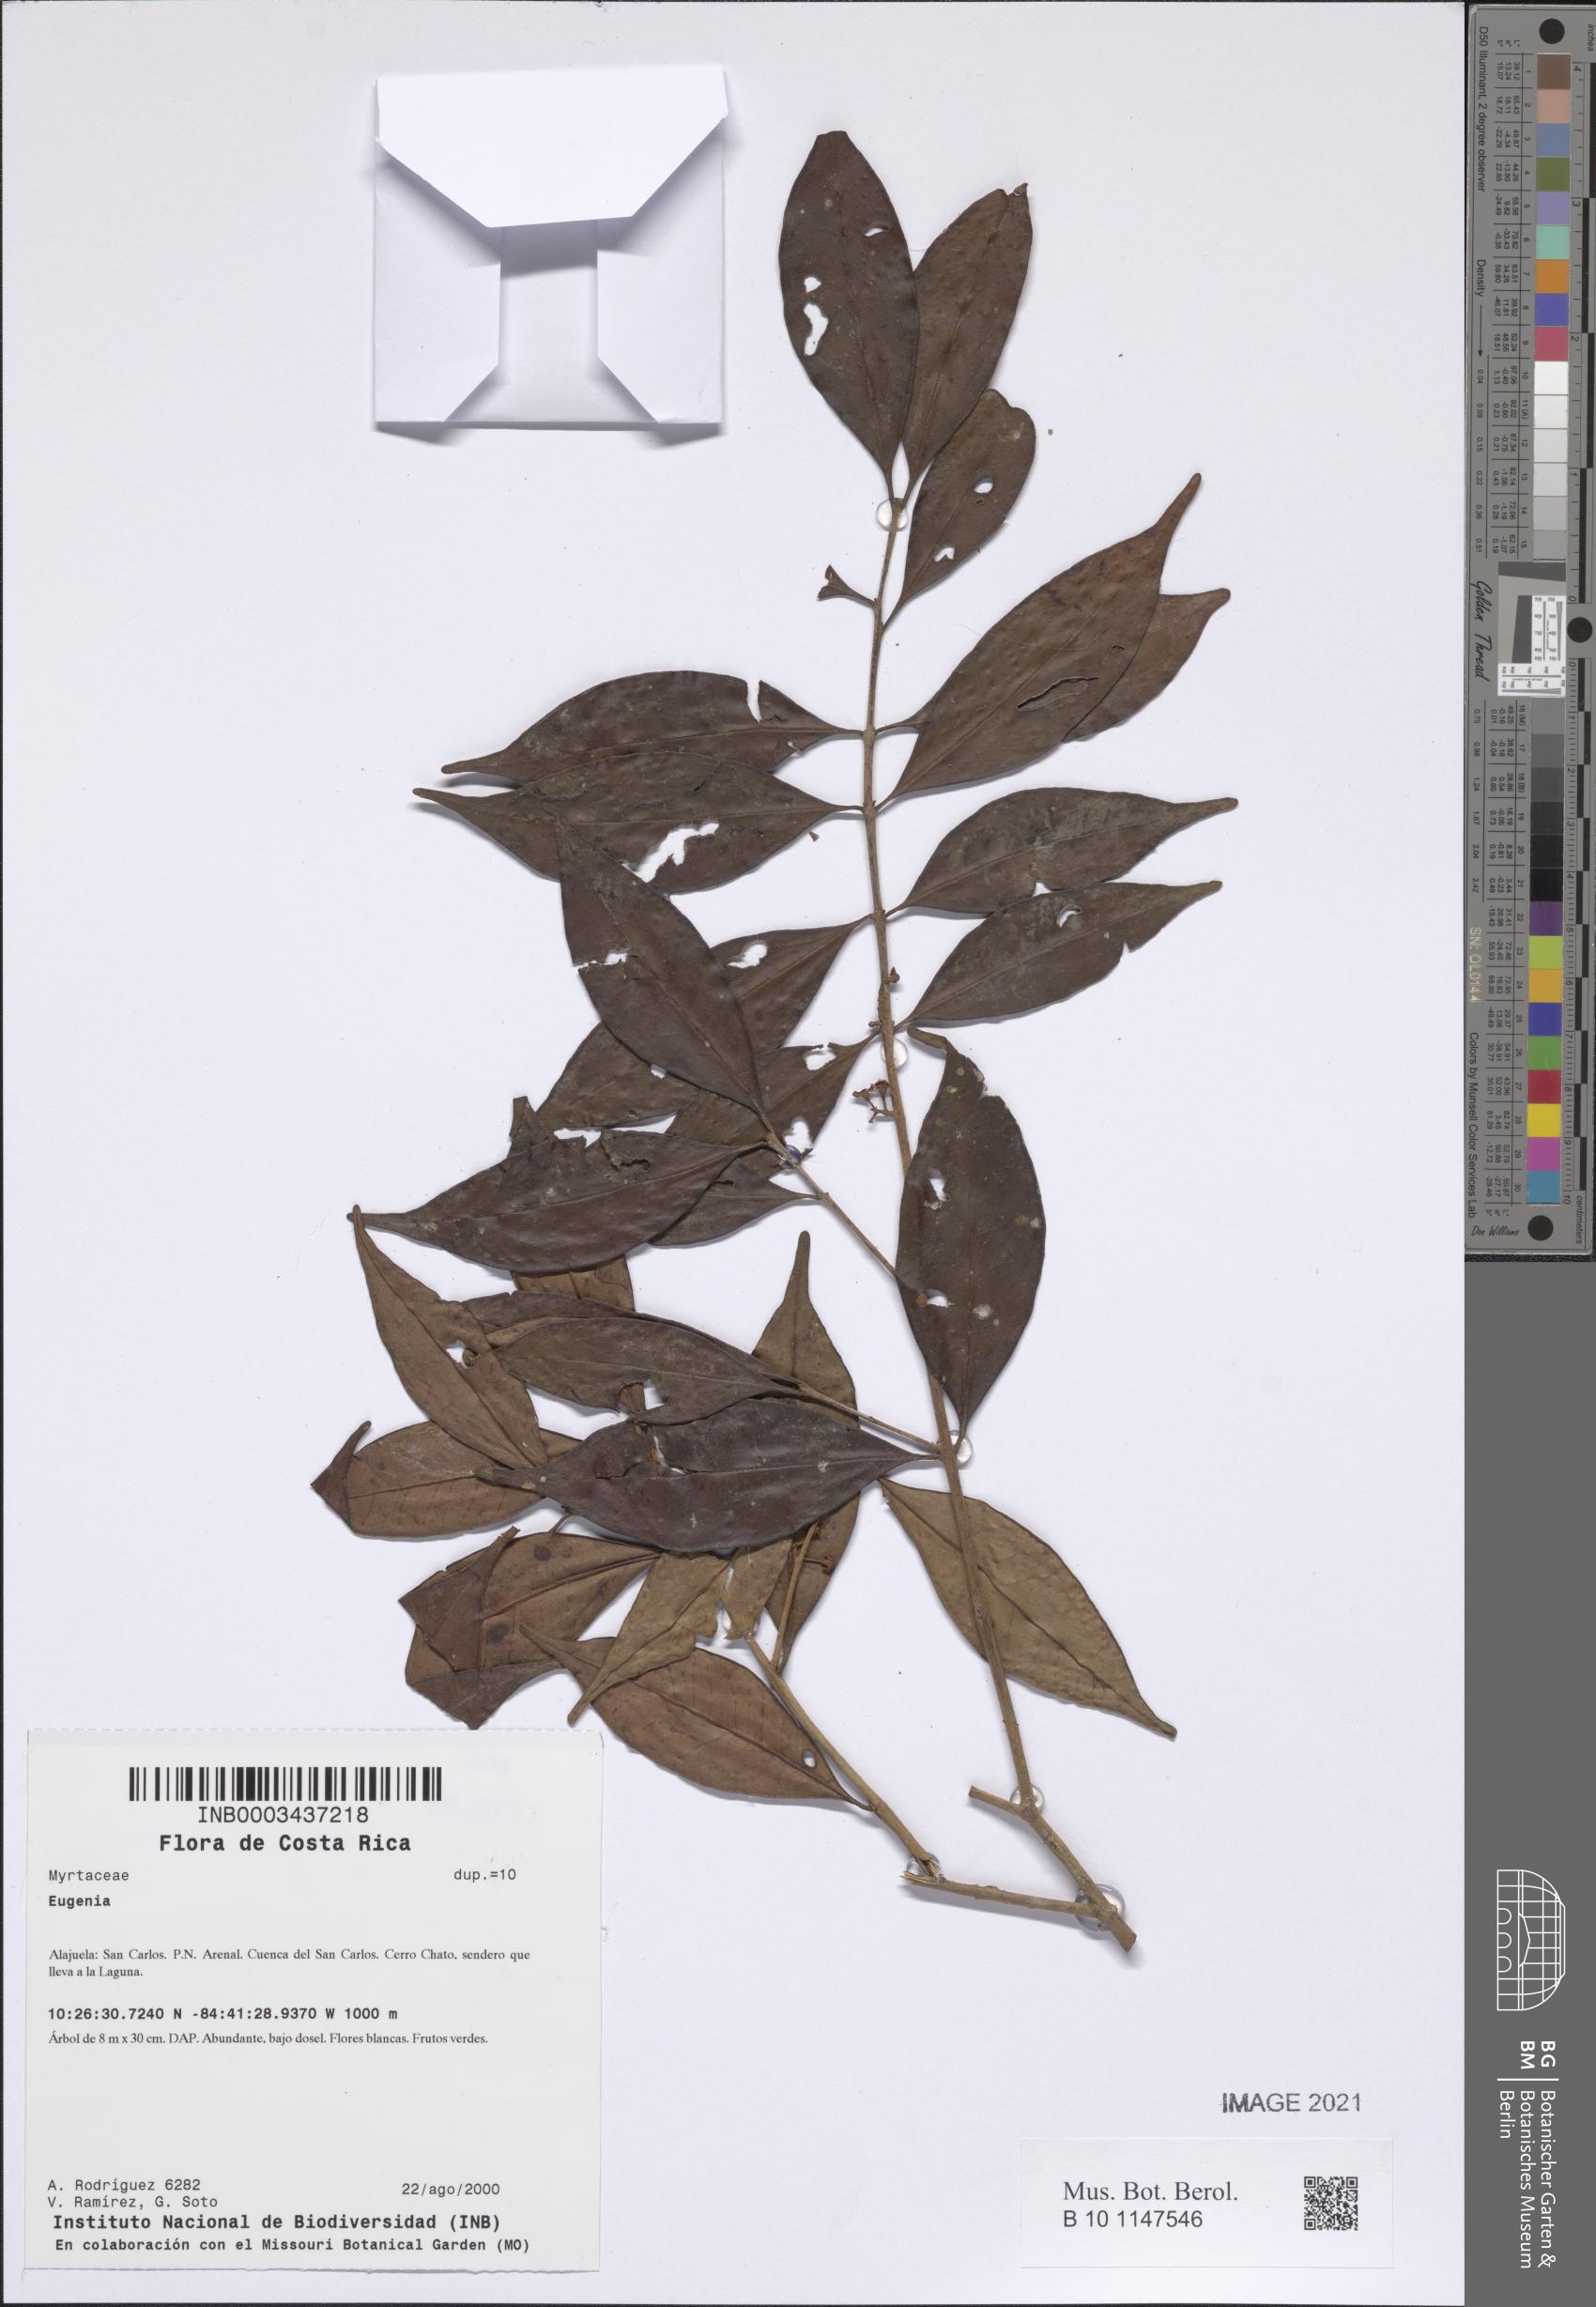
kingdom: Plantae
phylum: Tracheophyta
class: Magnoliopsida
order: Myrtales
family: Myrtaceae
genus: Eugenia
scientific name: Eugenia
